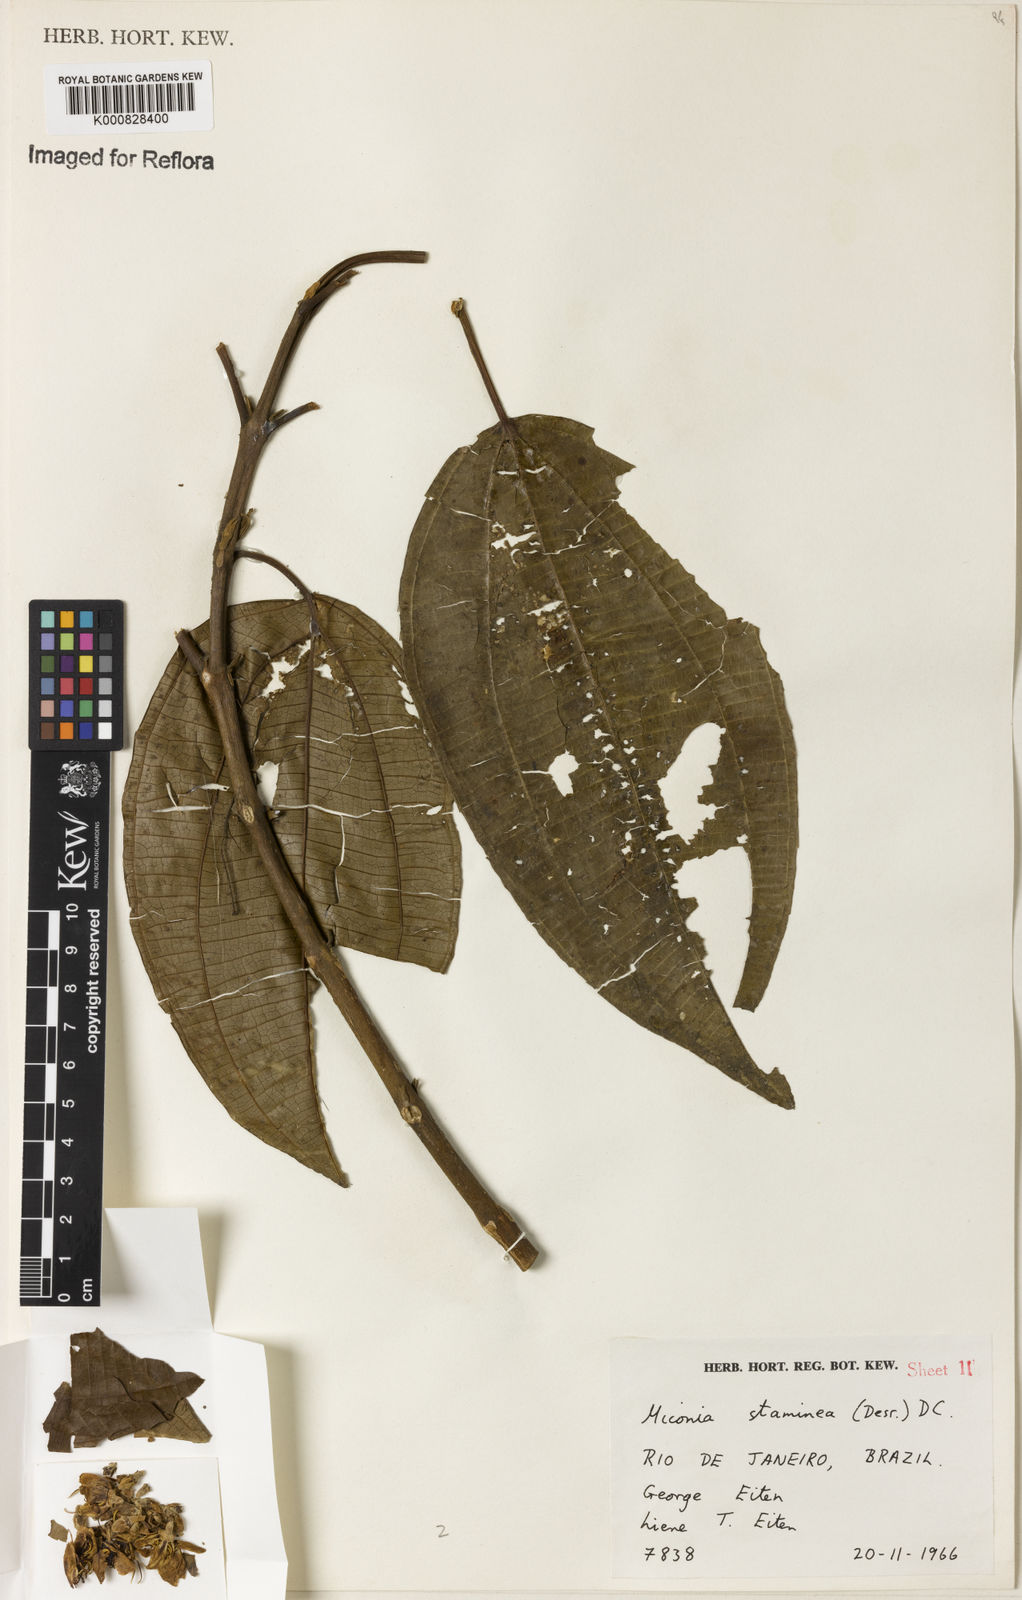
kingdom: Plantae
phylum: Tracheophyta
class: Magnoliopsida
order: Myrtales
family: Melastomataceae
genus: Miconia
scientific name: Miconia staminea
